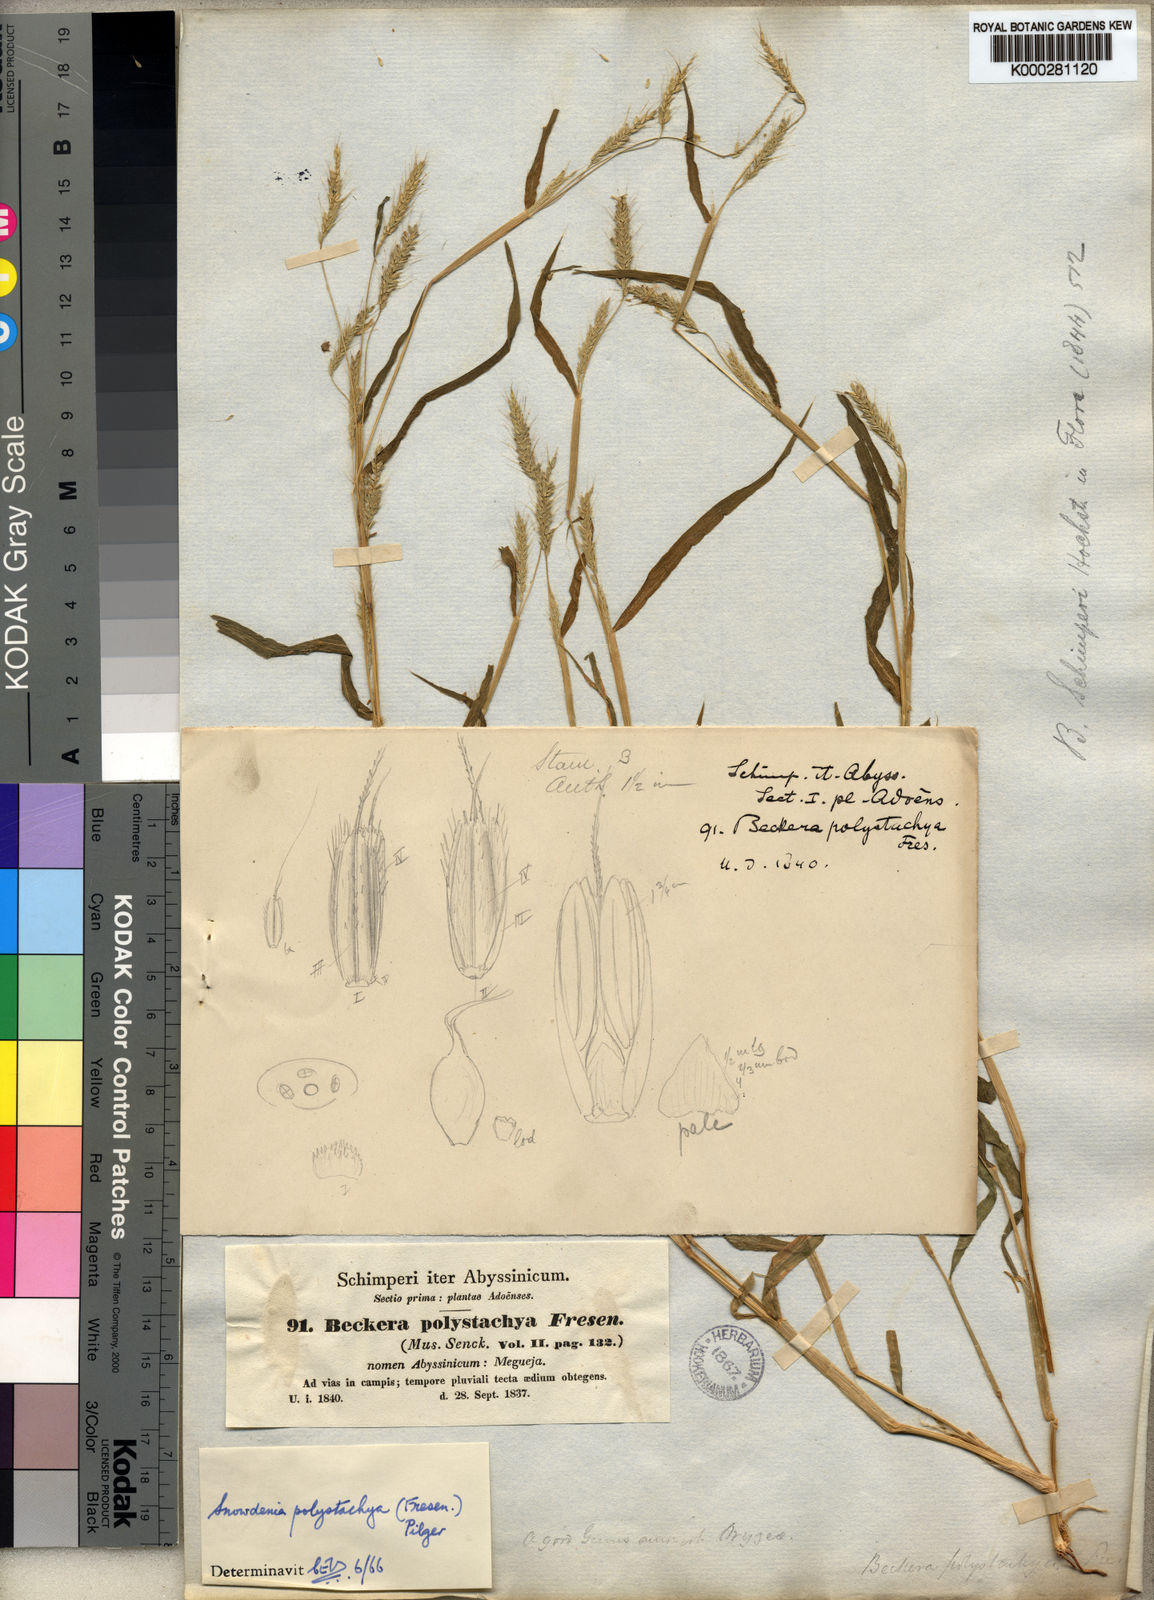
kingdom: Plantae
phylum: Tracheophyta
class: Liliopsida
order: Poales
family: Poaceae
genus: Snowdenia
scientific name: Snowdenia polystachya
